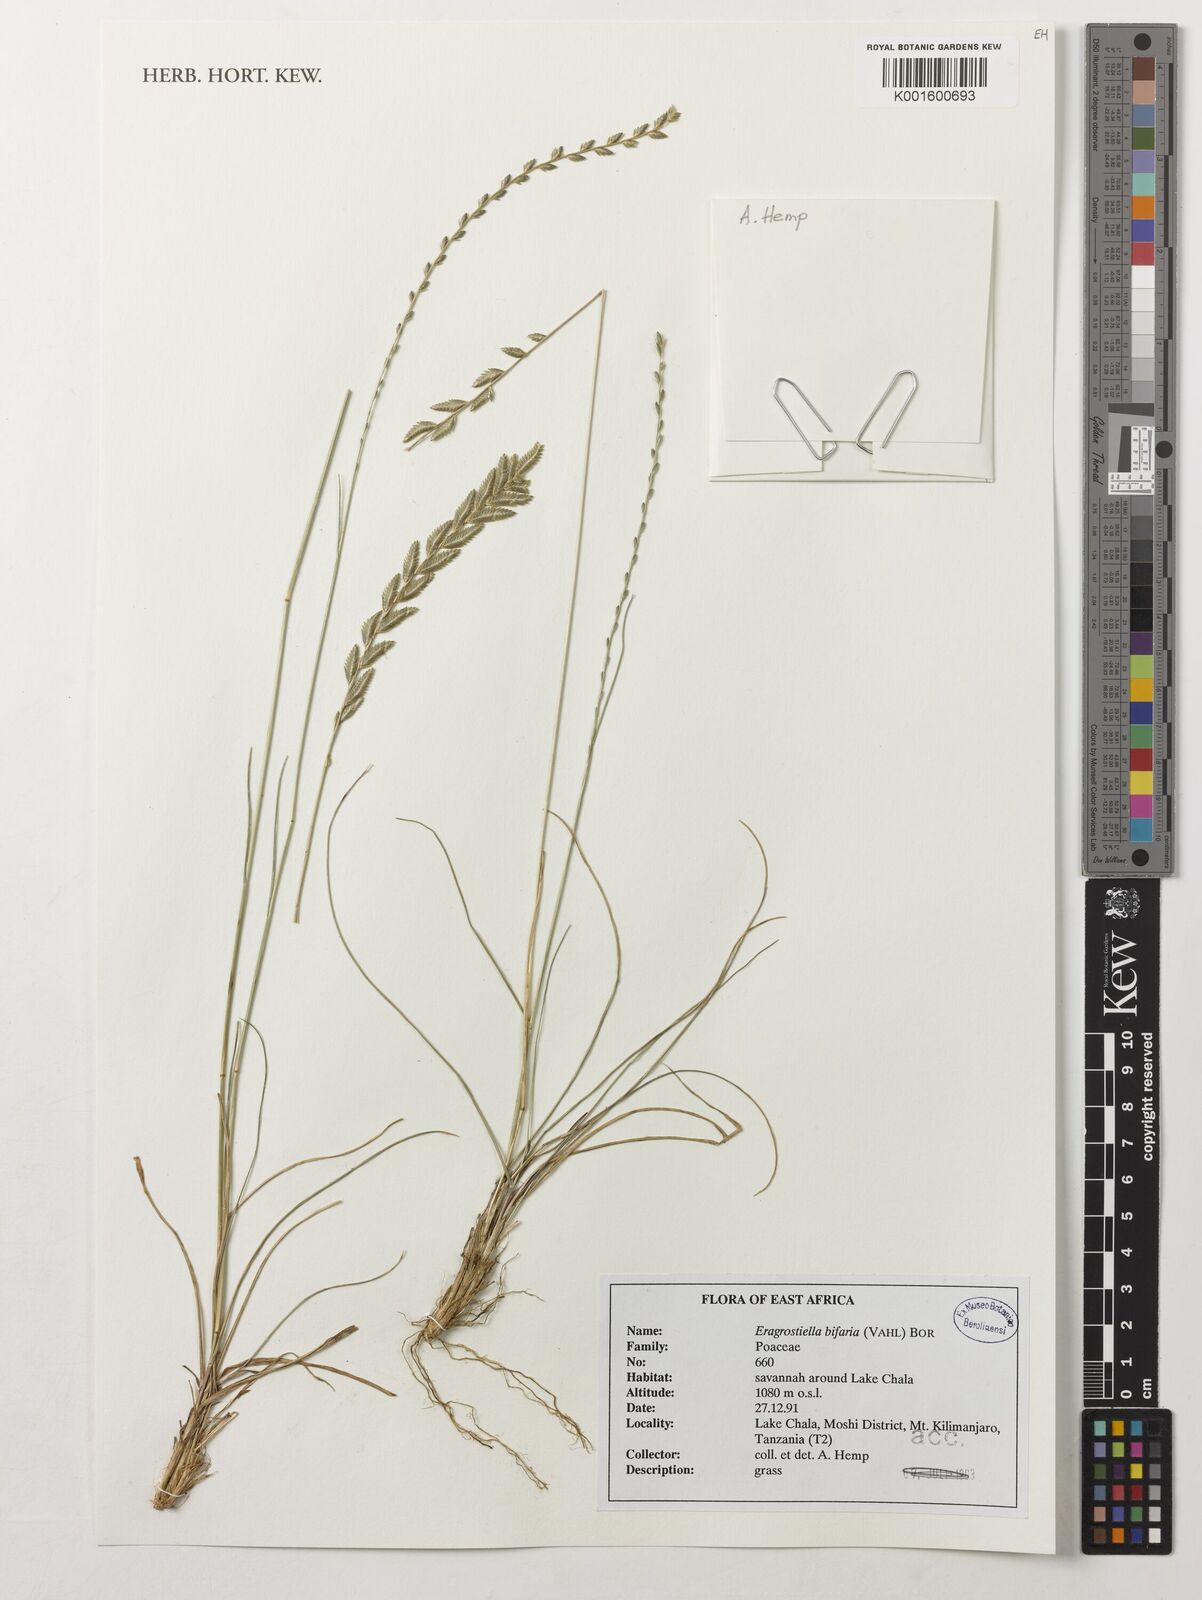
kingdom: Plantae
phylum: Tracheophyta
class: Liliopsida
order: Poales
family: Poaceae
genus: Eragrostiella
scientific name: Eragrostiella bifaria
